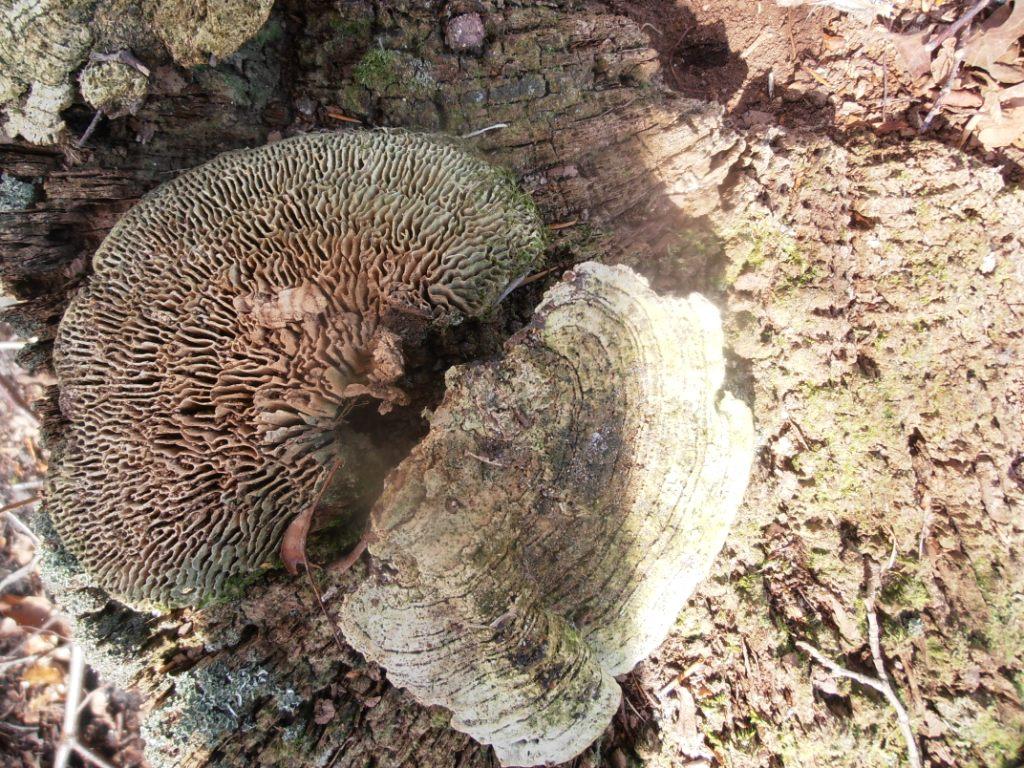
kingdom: Fungi
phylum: Basidiomycota
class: Agaricomycetes
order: Polyporales
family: Fomitopsidaceae
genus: Daedalea
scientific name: Daedalea quercina
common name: ege-labyrintsvamp
